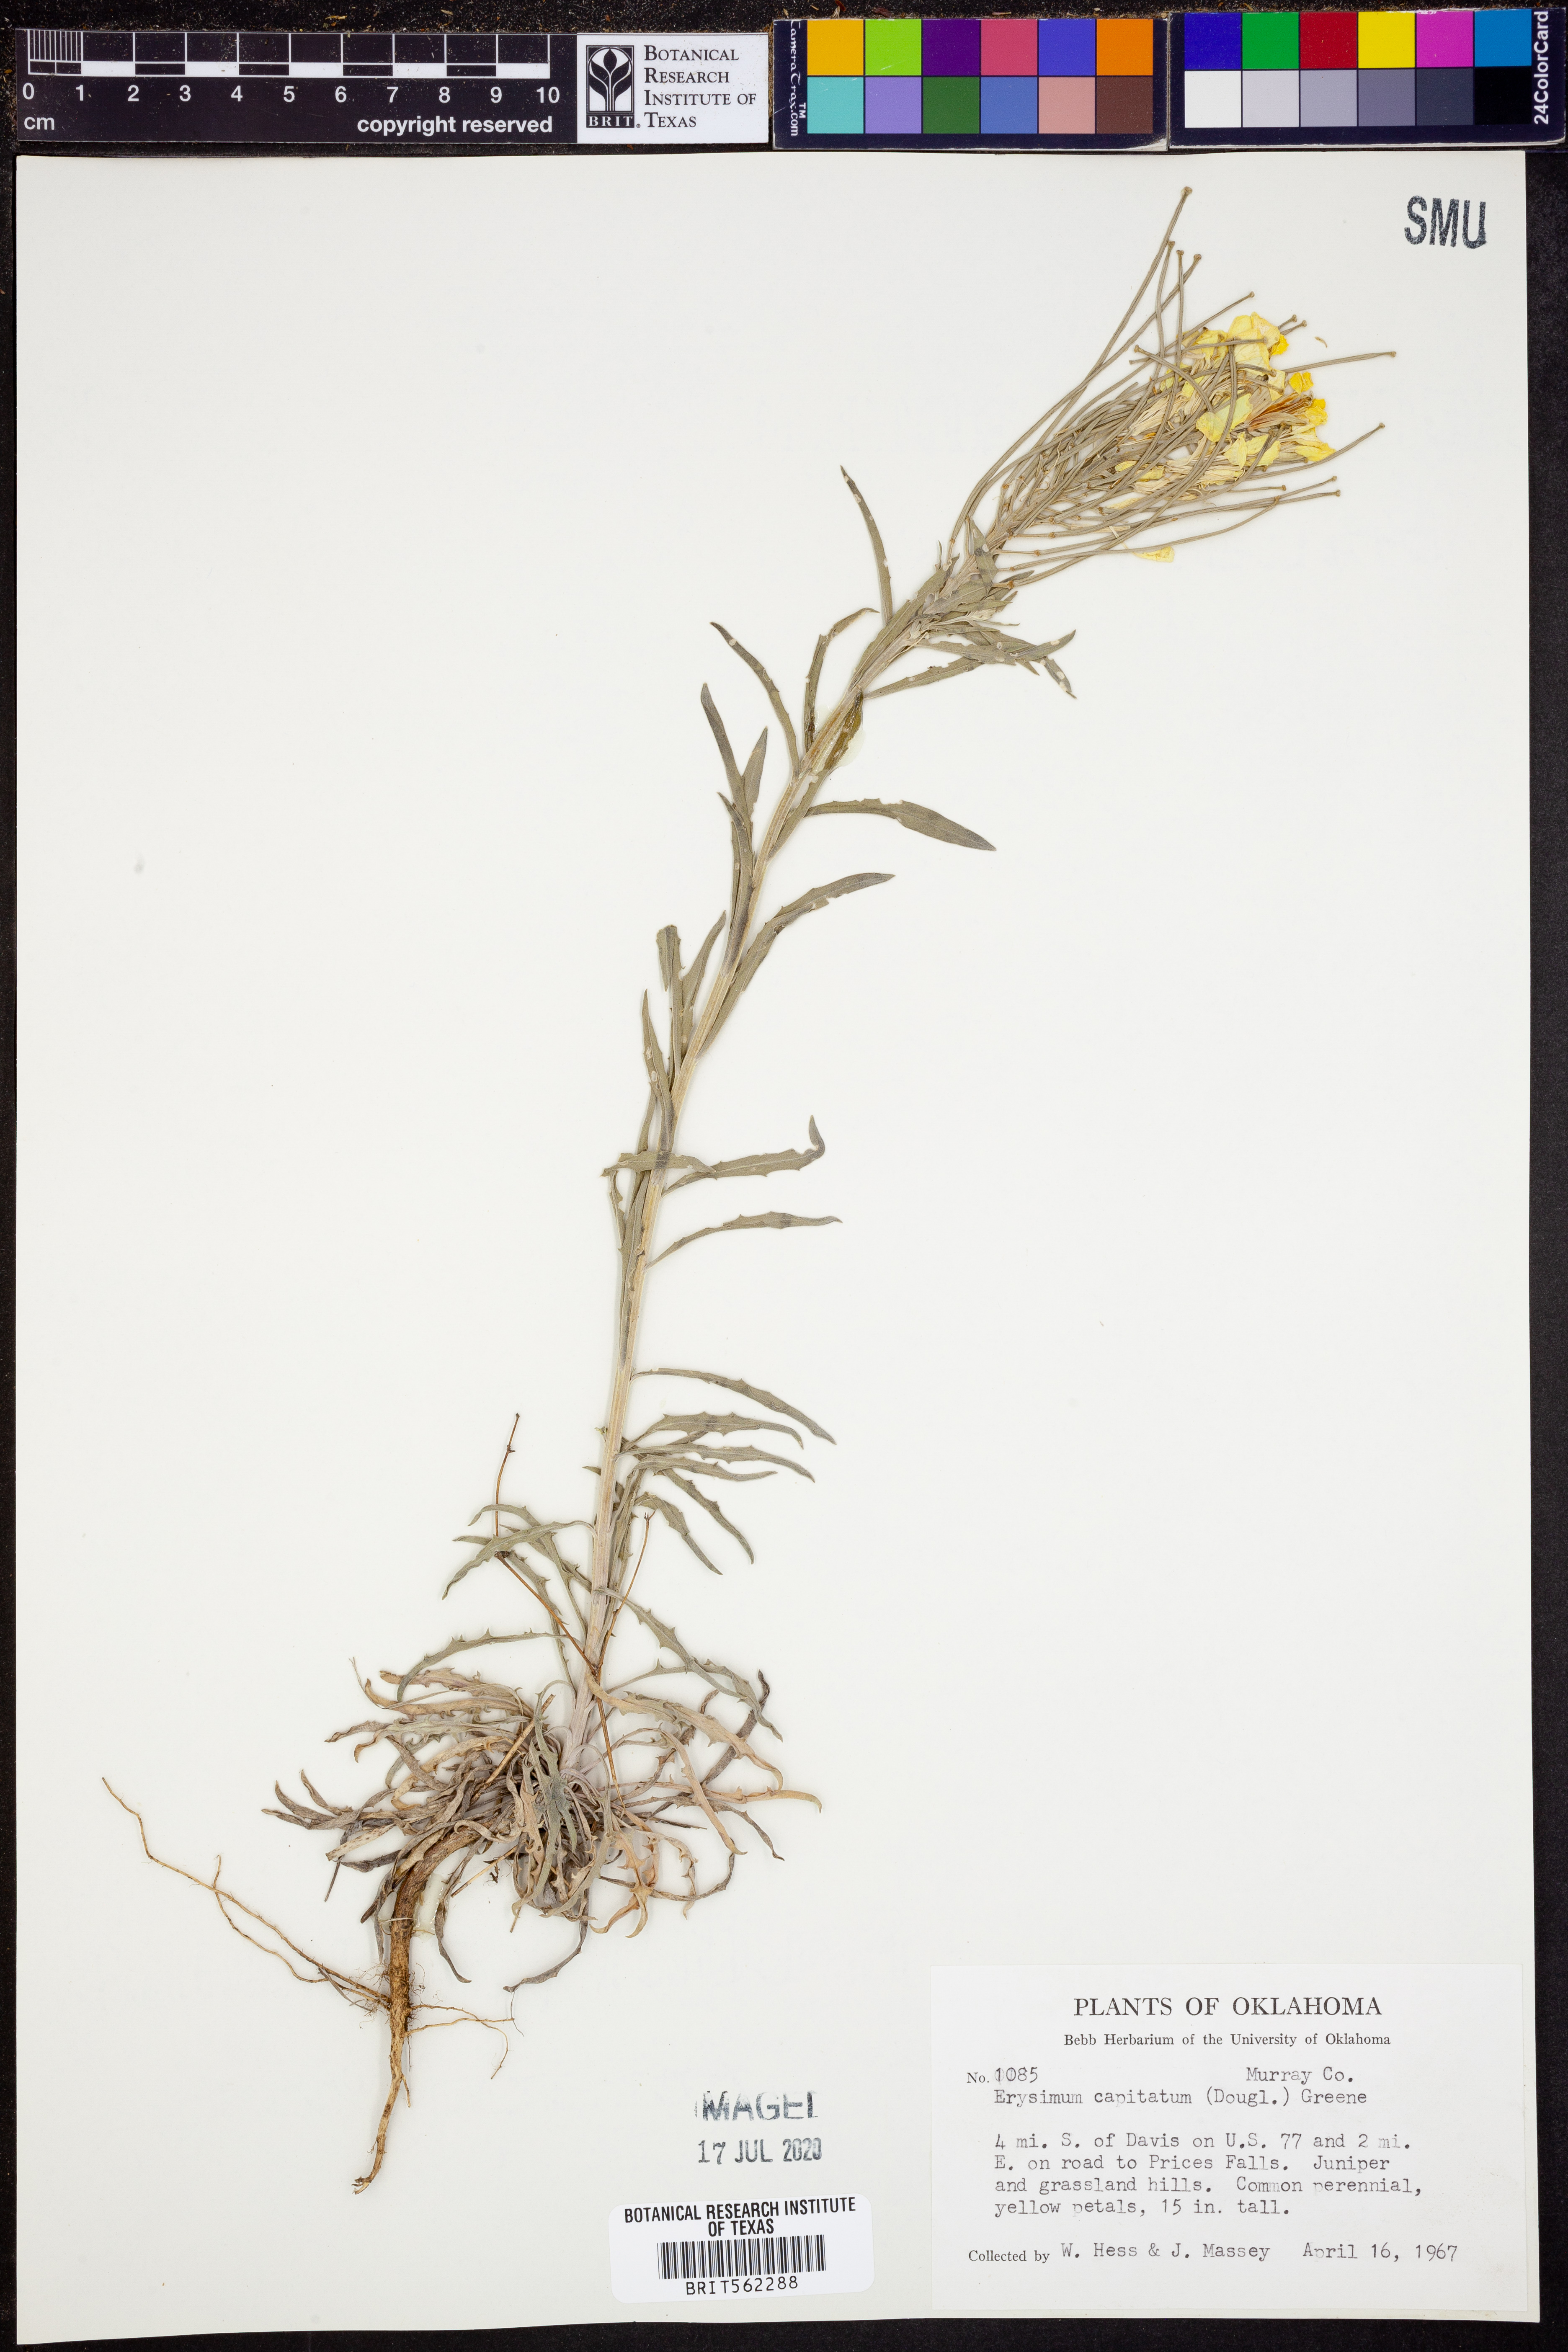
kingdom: Plantae
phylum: Tracheophyta
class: Magnoliopsida
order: Brassicales
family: Brassicaceae
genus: Erysimum
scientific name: Erysimum capitatum
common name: Western wallflower
